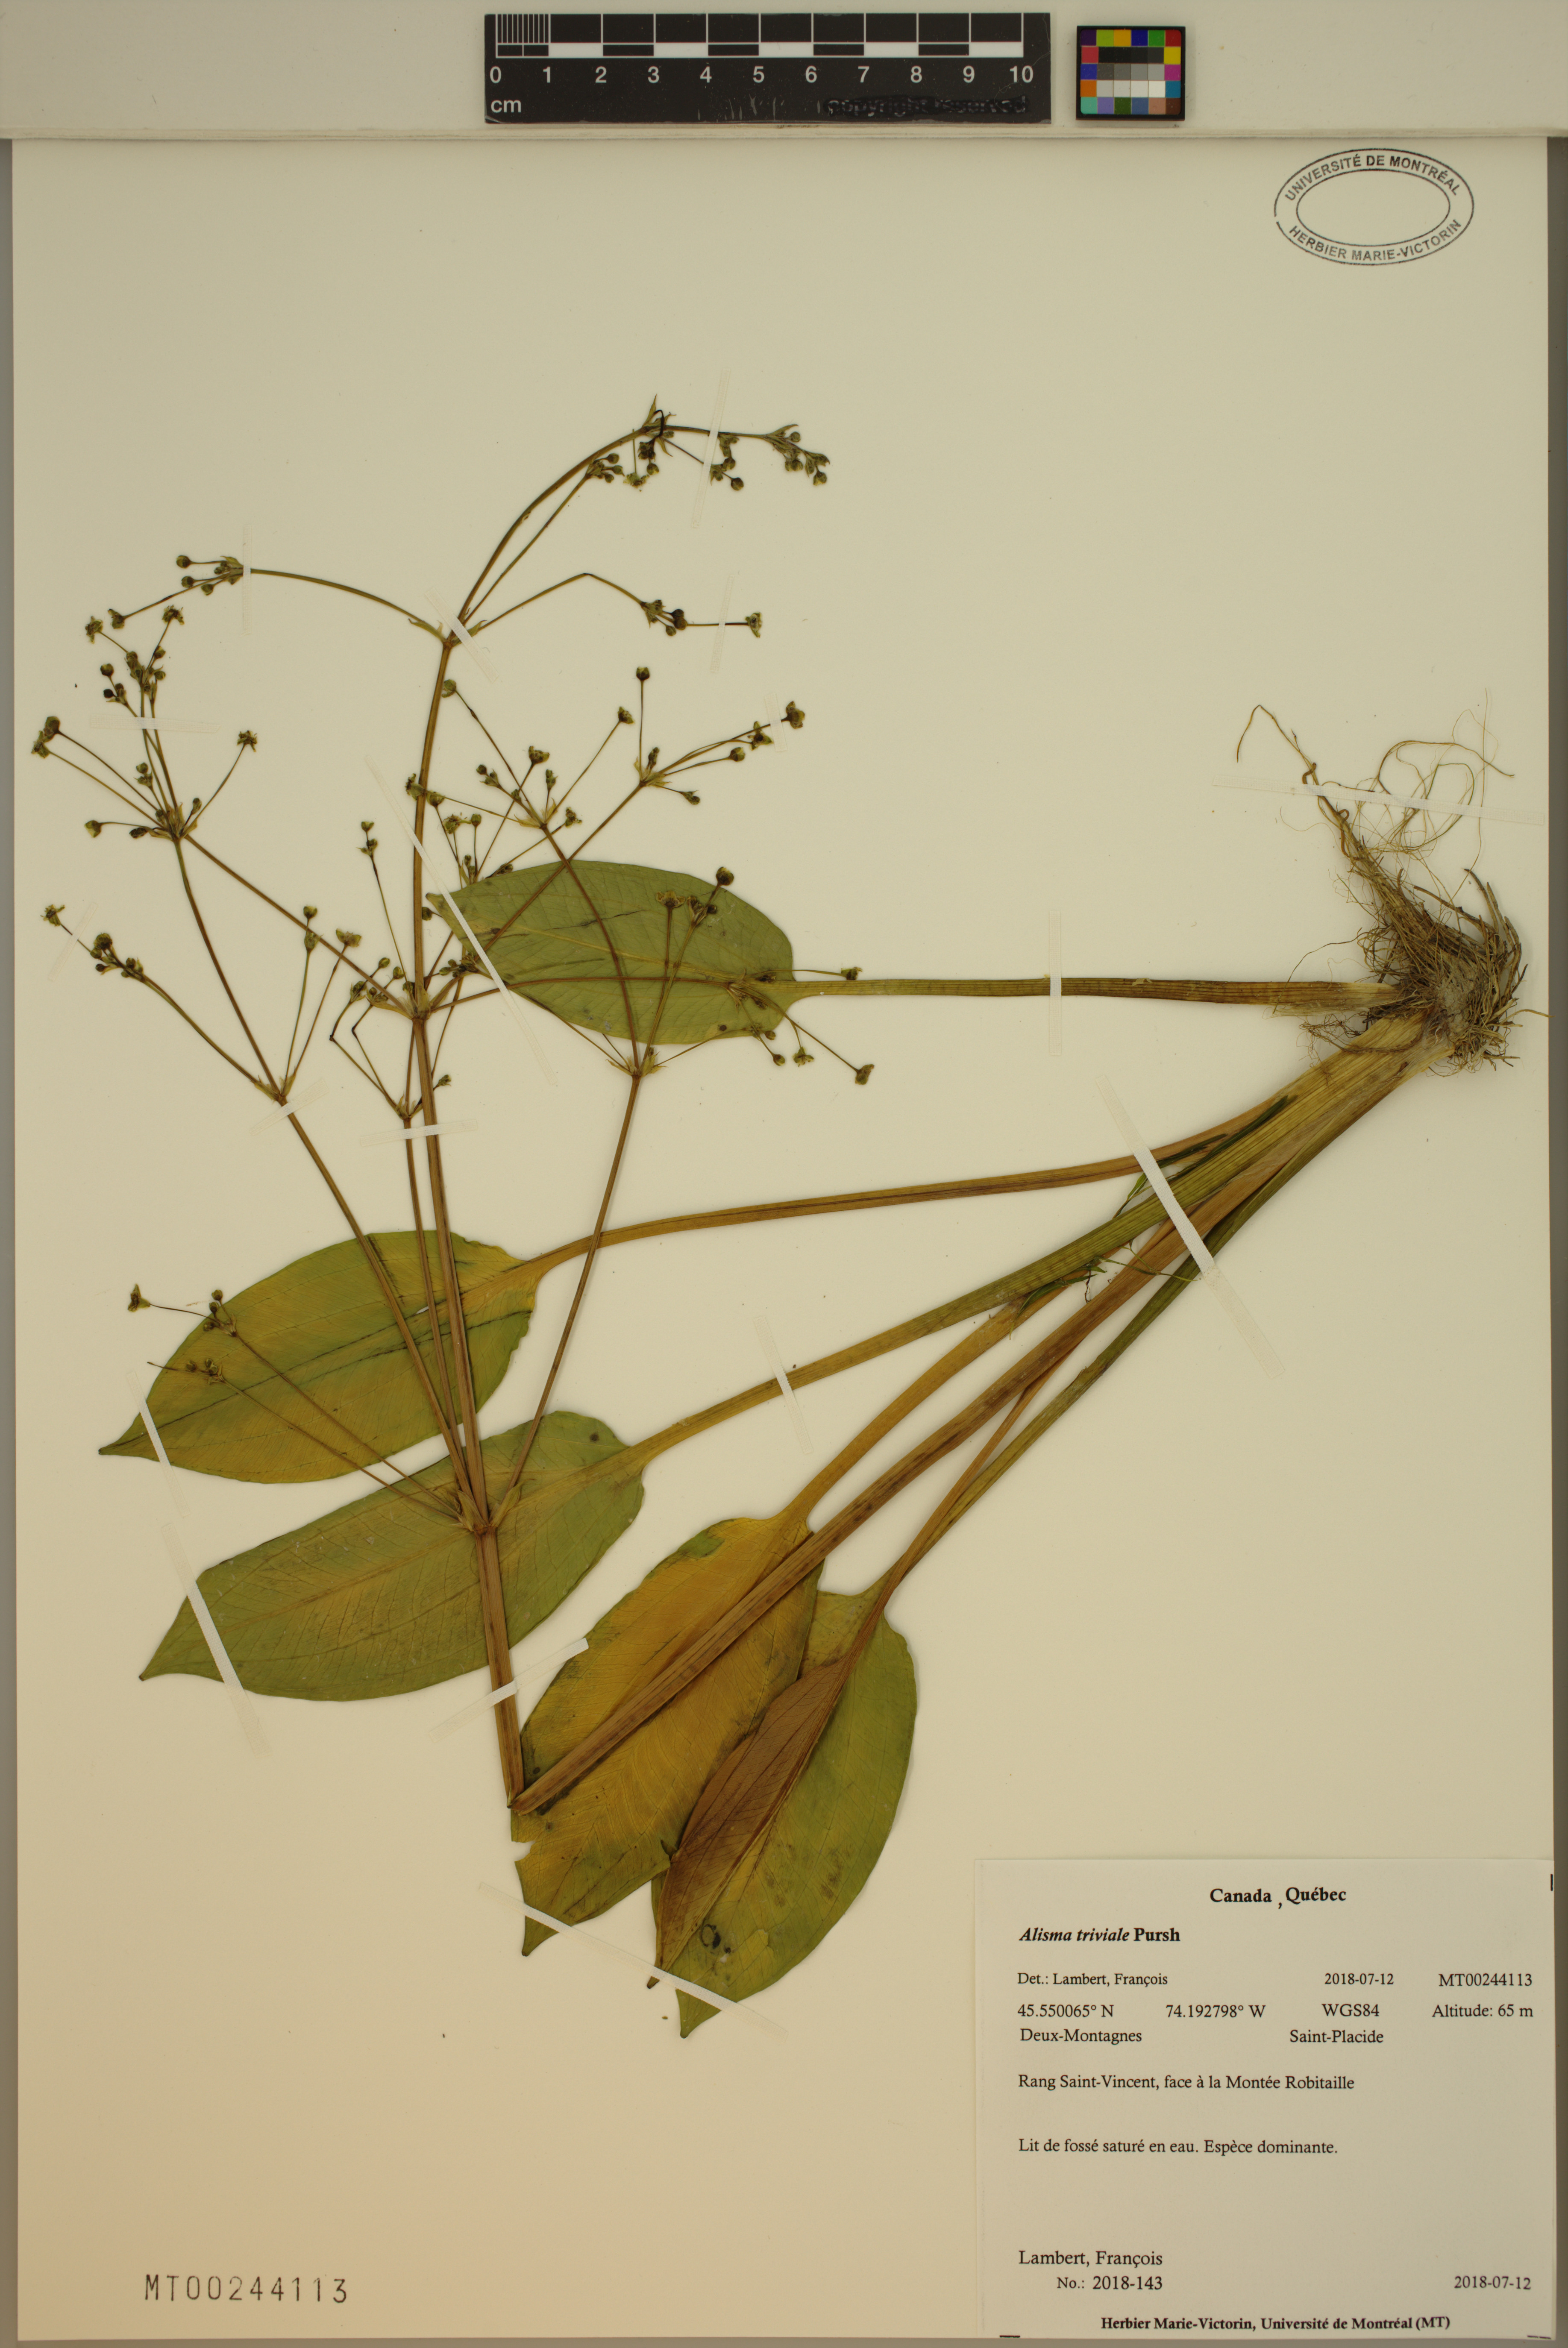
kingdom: Plantae
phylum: Tracheophyta
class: Liliopsida
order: Alismatales
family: Alismataceae
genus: Alisma
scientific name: Alisma triviale
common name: Northern water-plantain
